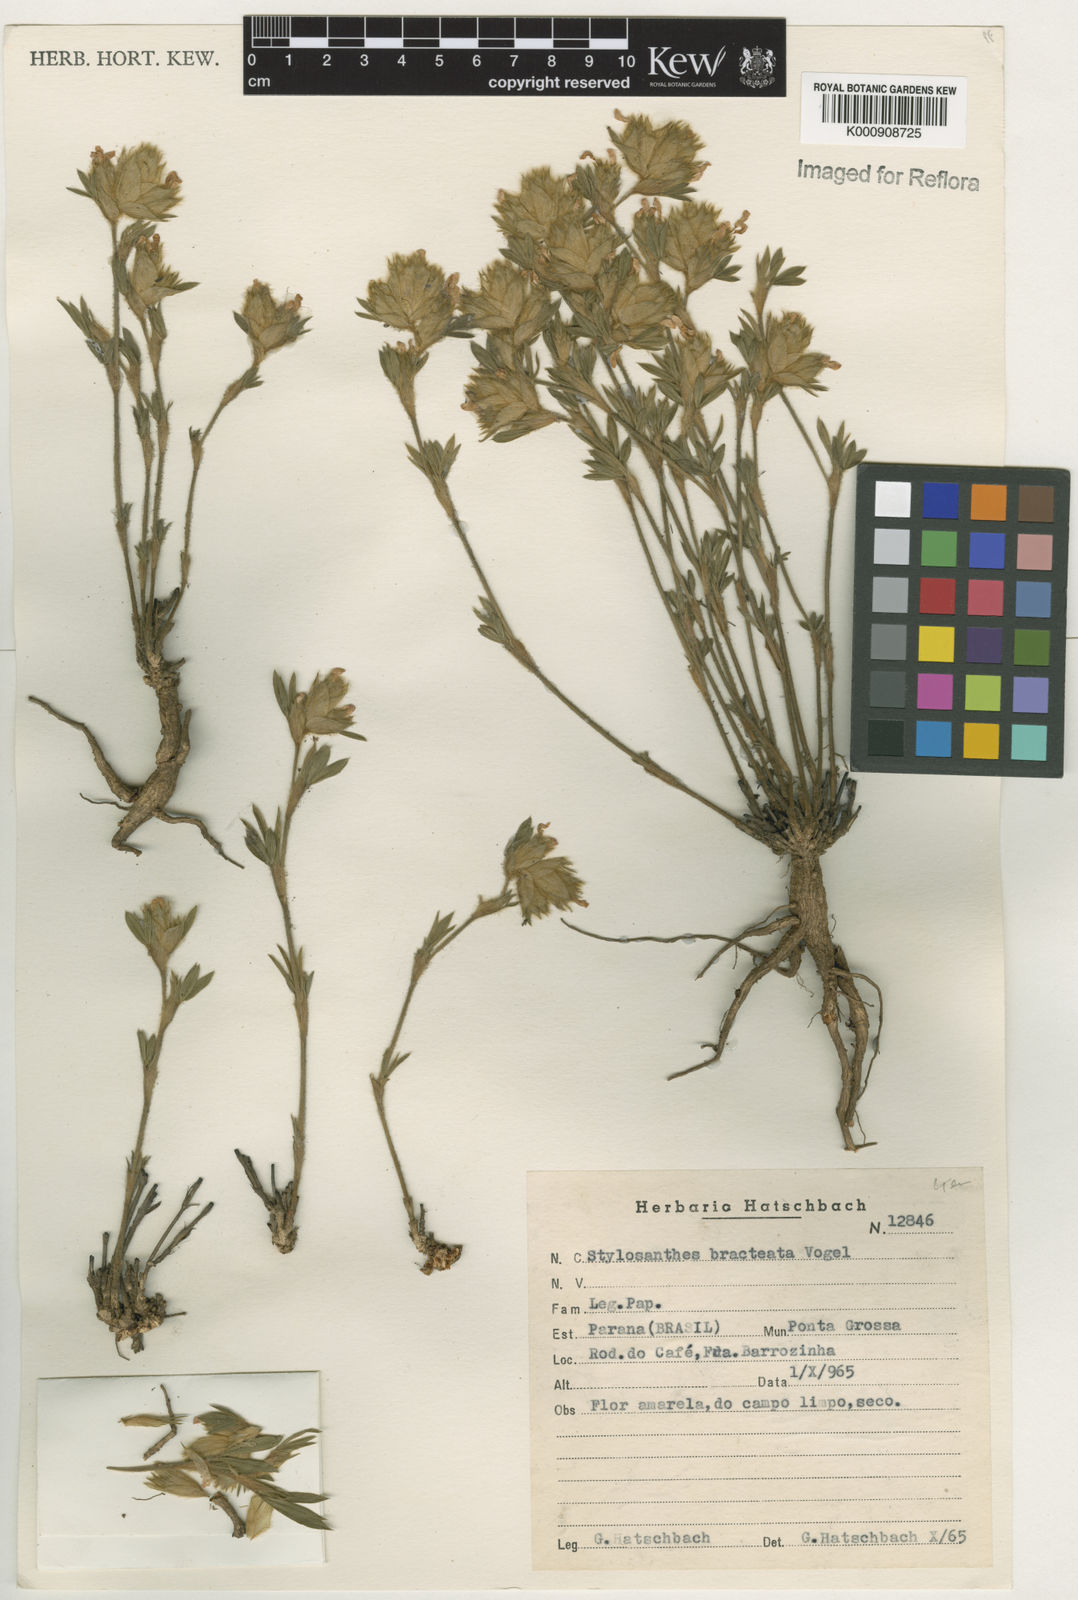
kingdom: Plantae
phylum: Tracheophyta
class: Magnoliopsida
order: Fabales
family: Fabaceae
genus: Stylosanthes
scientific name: Stylosanthes bracteata
